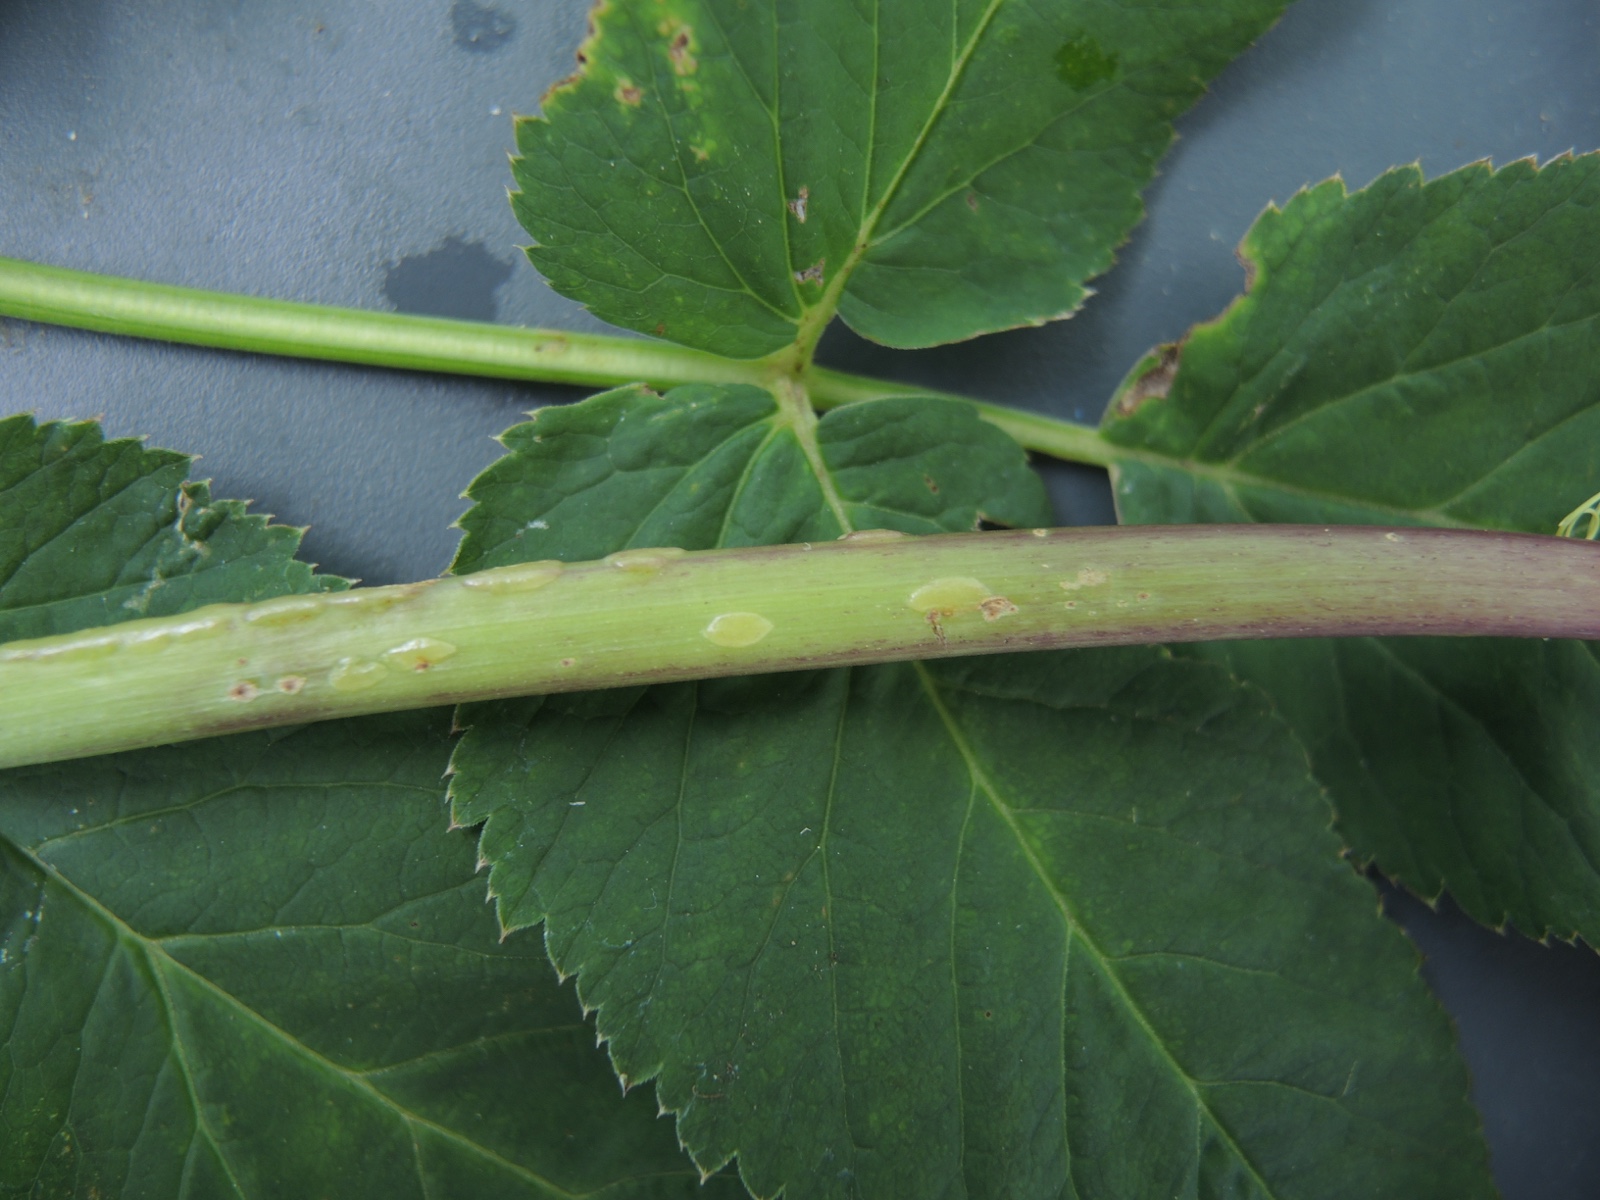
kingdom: Fungi
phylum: Ascomycota
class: Taphrinomycetes
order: Taphrinales
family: Taphrinaceae
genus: Protomyces
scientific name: Protomyces macrosporus
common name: skvalderkål-vablesæk
